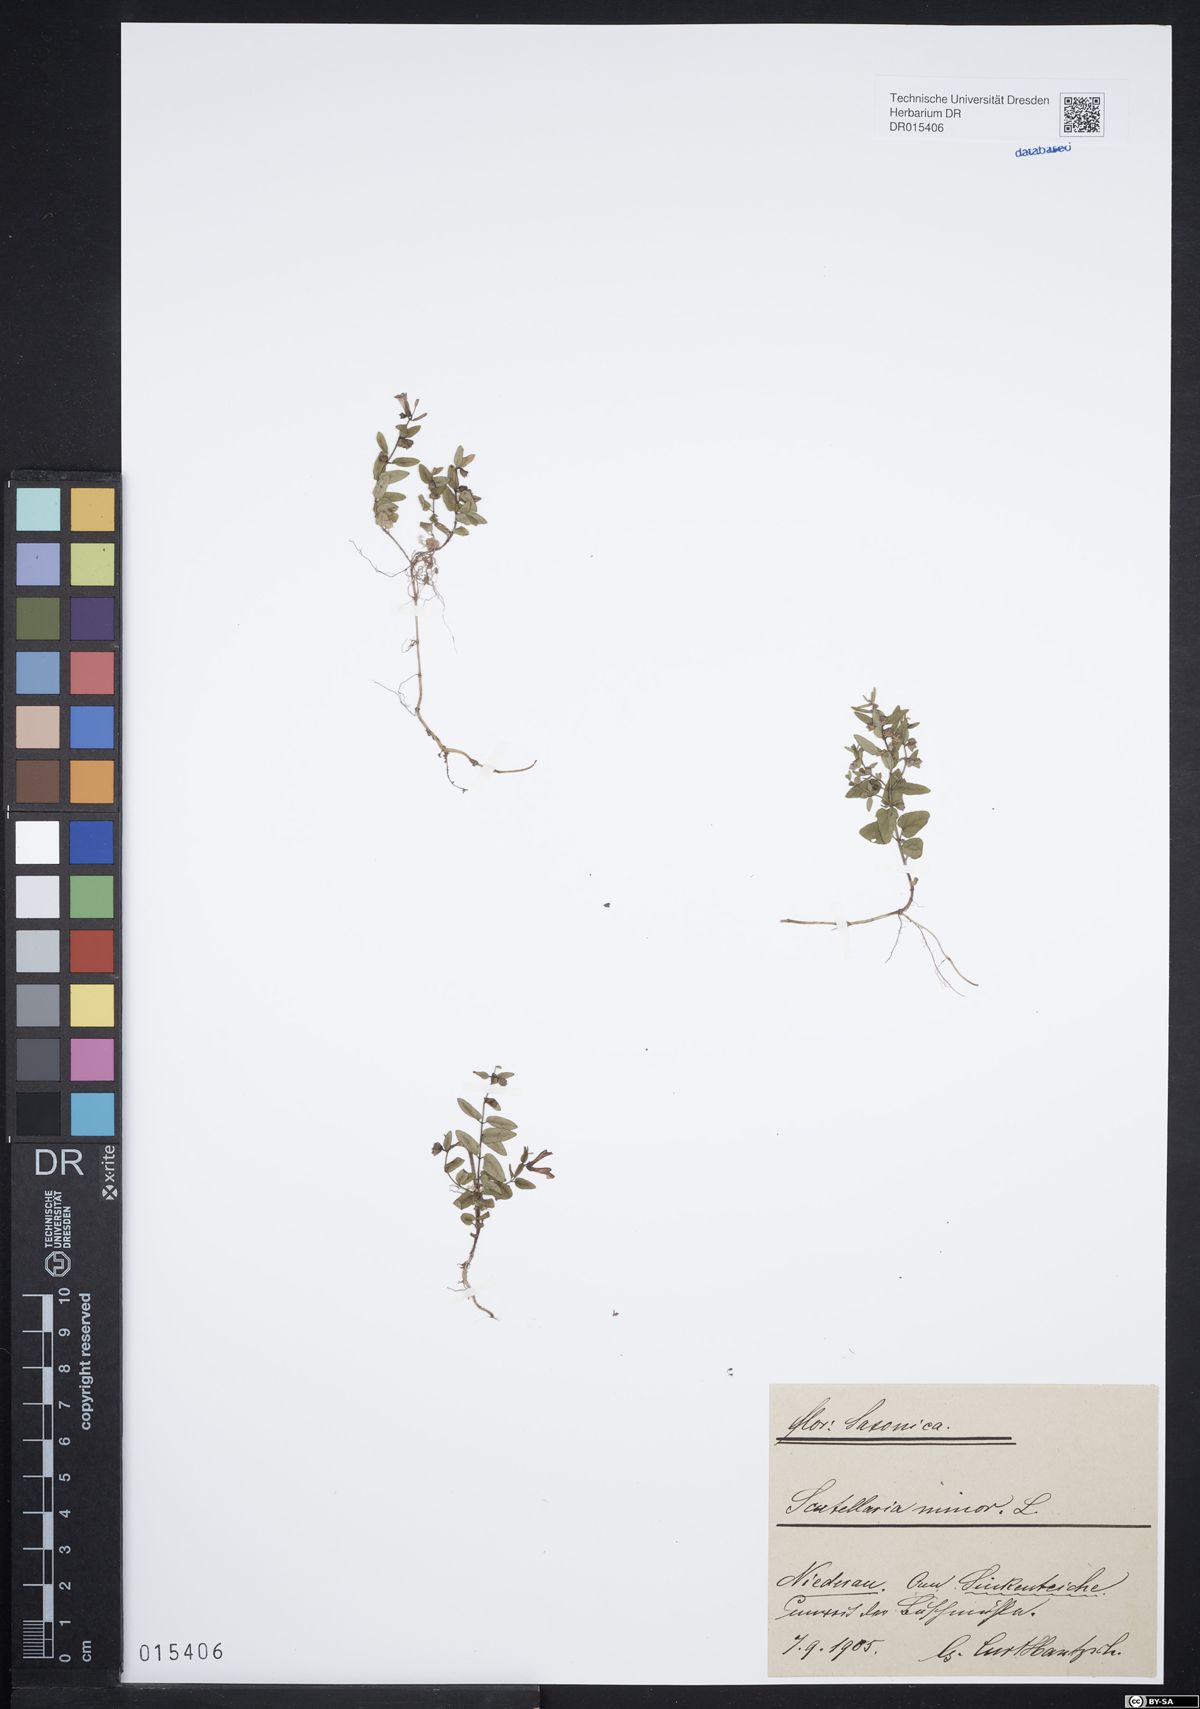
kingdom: Plantae
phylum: Tracheophyta
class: Magnoliopsida
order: Lamiales
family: Lamiaceae
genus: Scutellaria
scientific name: Scutellaria minor
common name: Lesser skullcap
